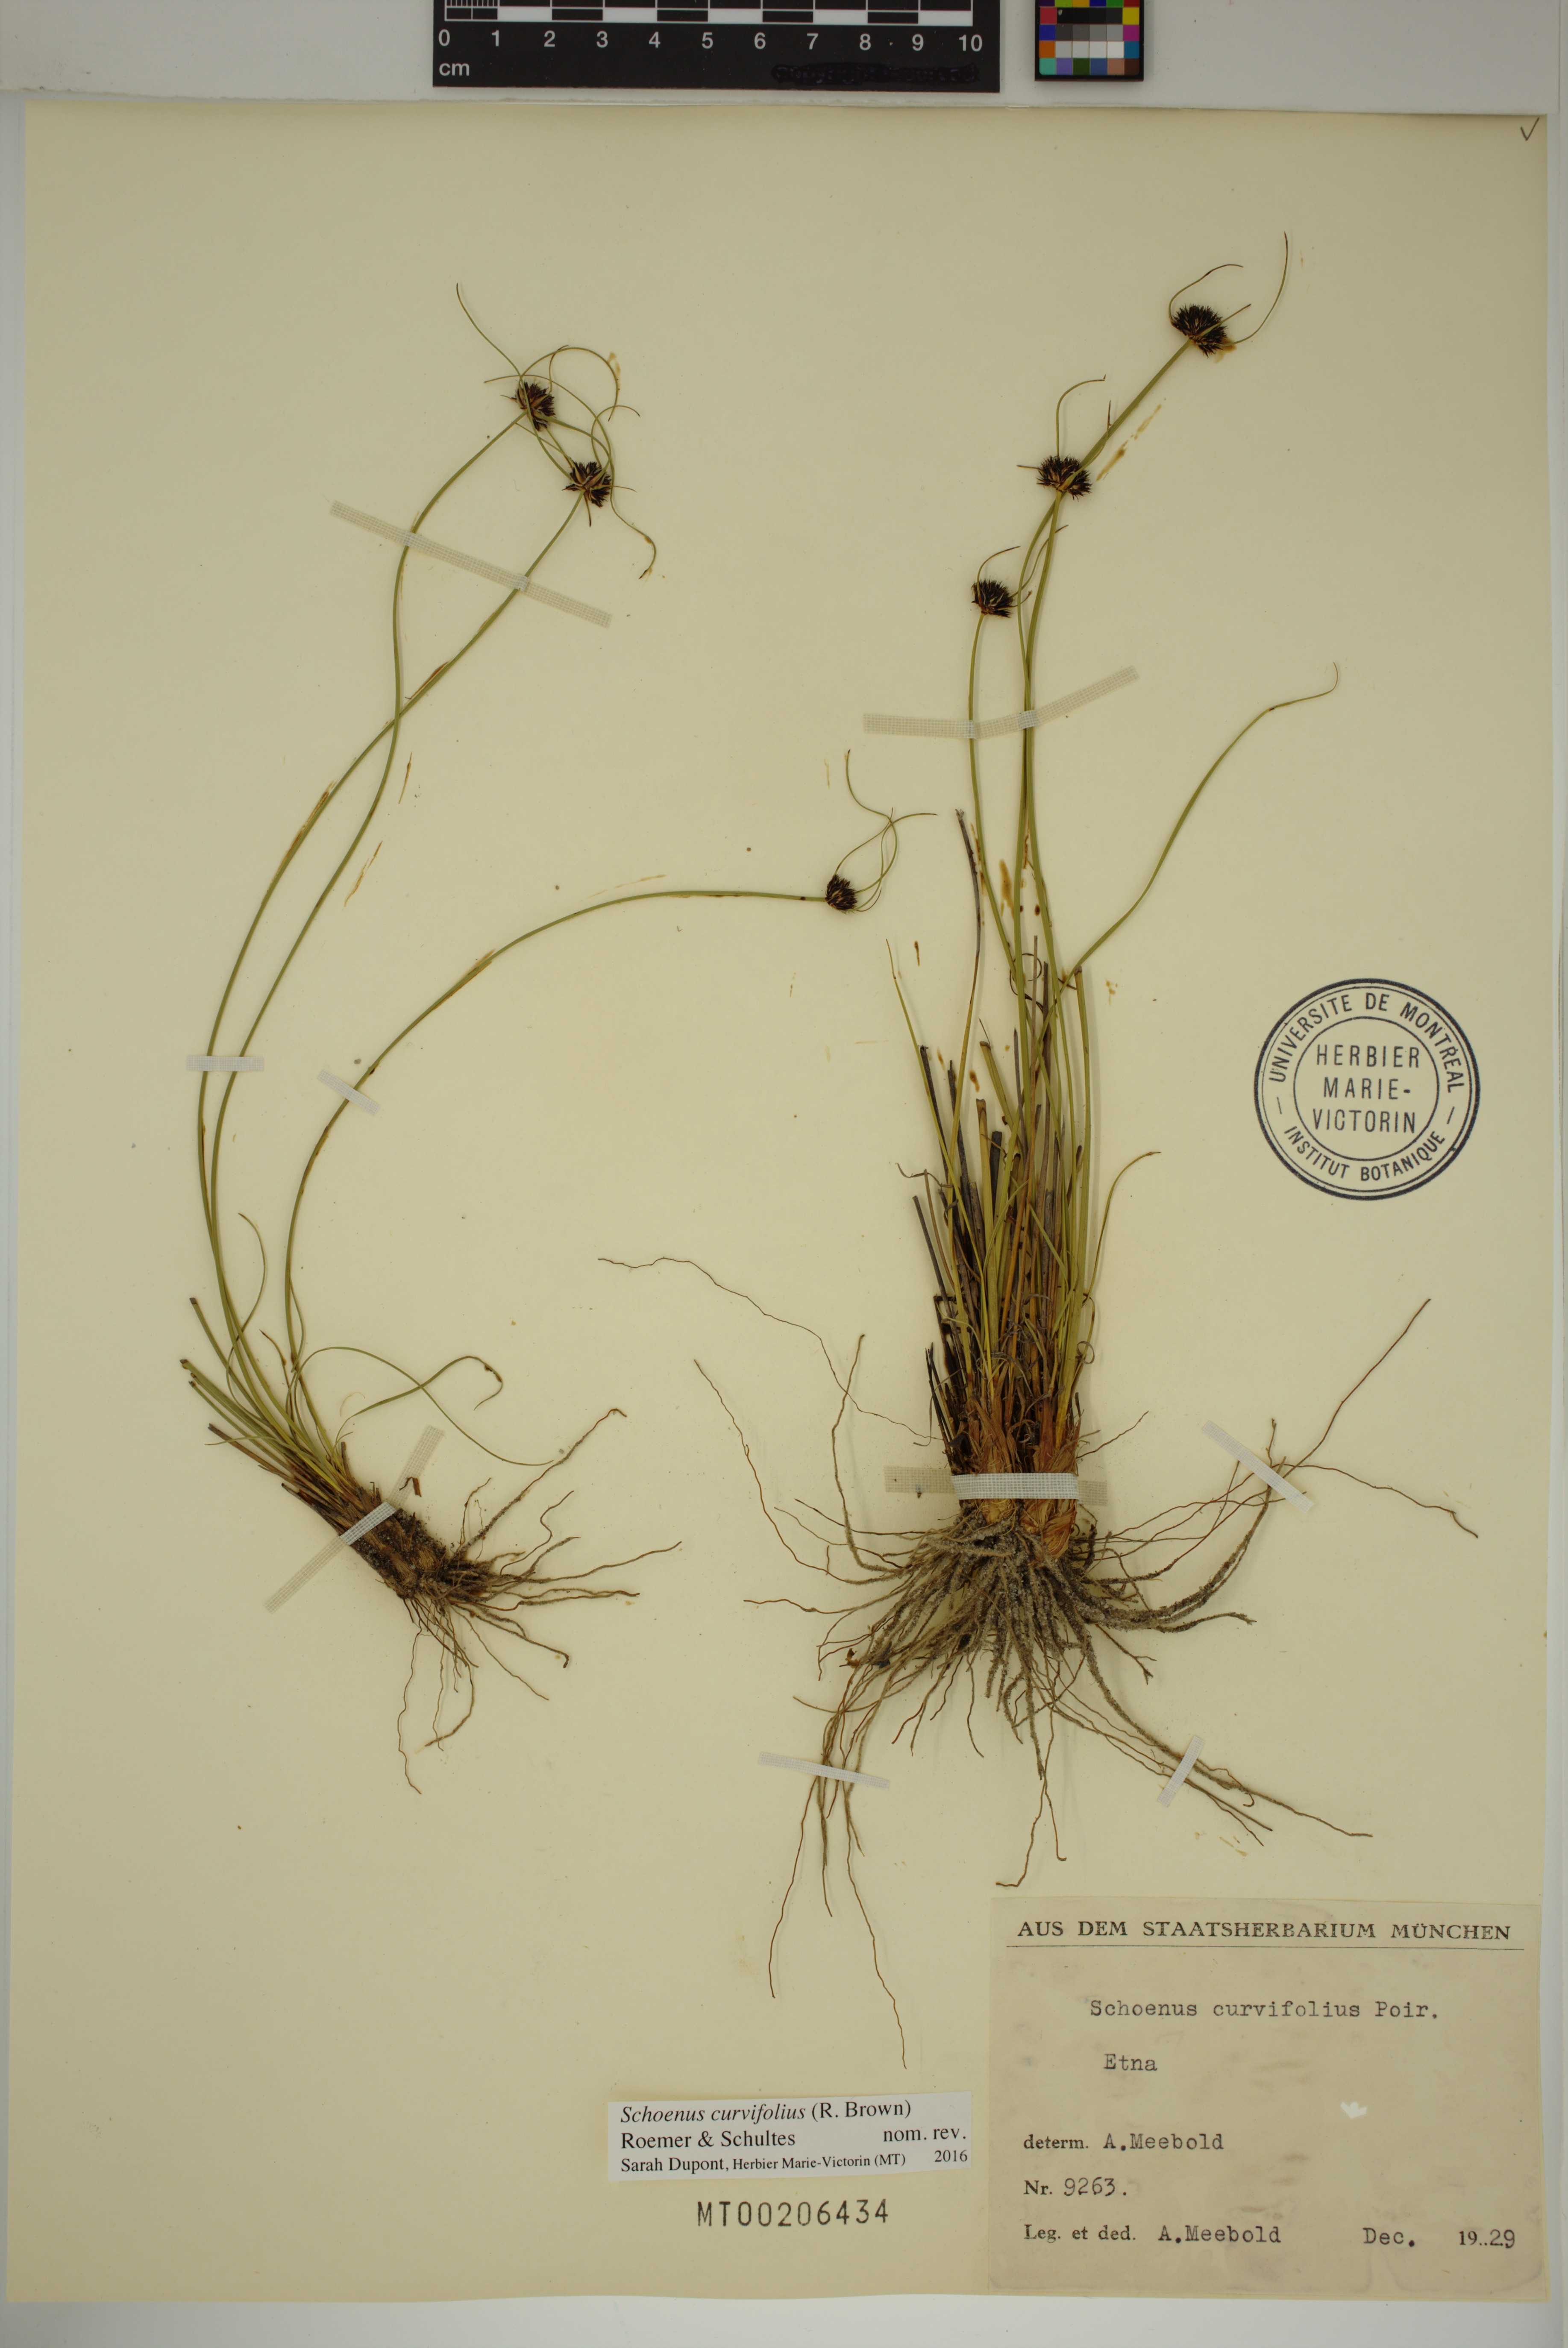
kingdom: Plantae
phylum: Tracheophyta
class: Liliopsida
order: Poales
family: Cyperaceae
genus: Schoenus
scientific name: Schoenus curvifolius
